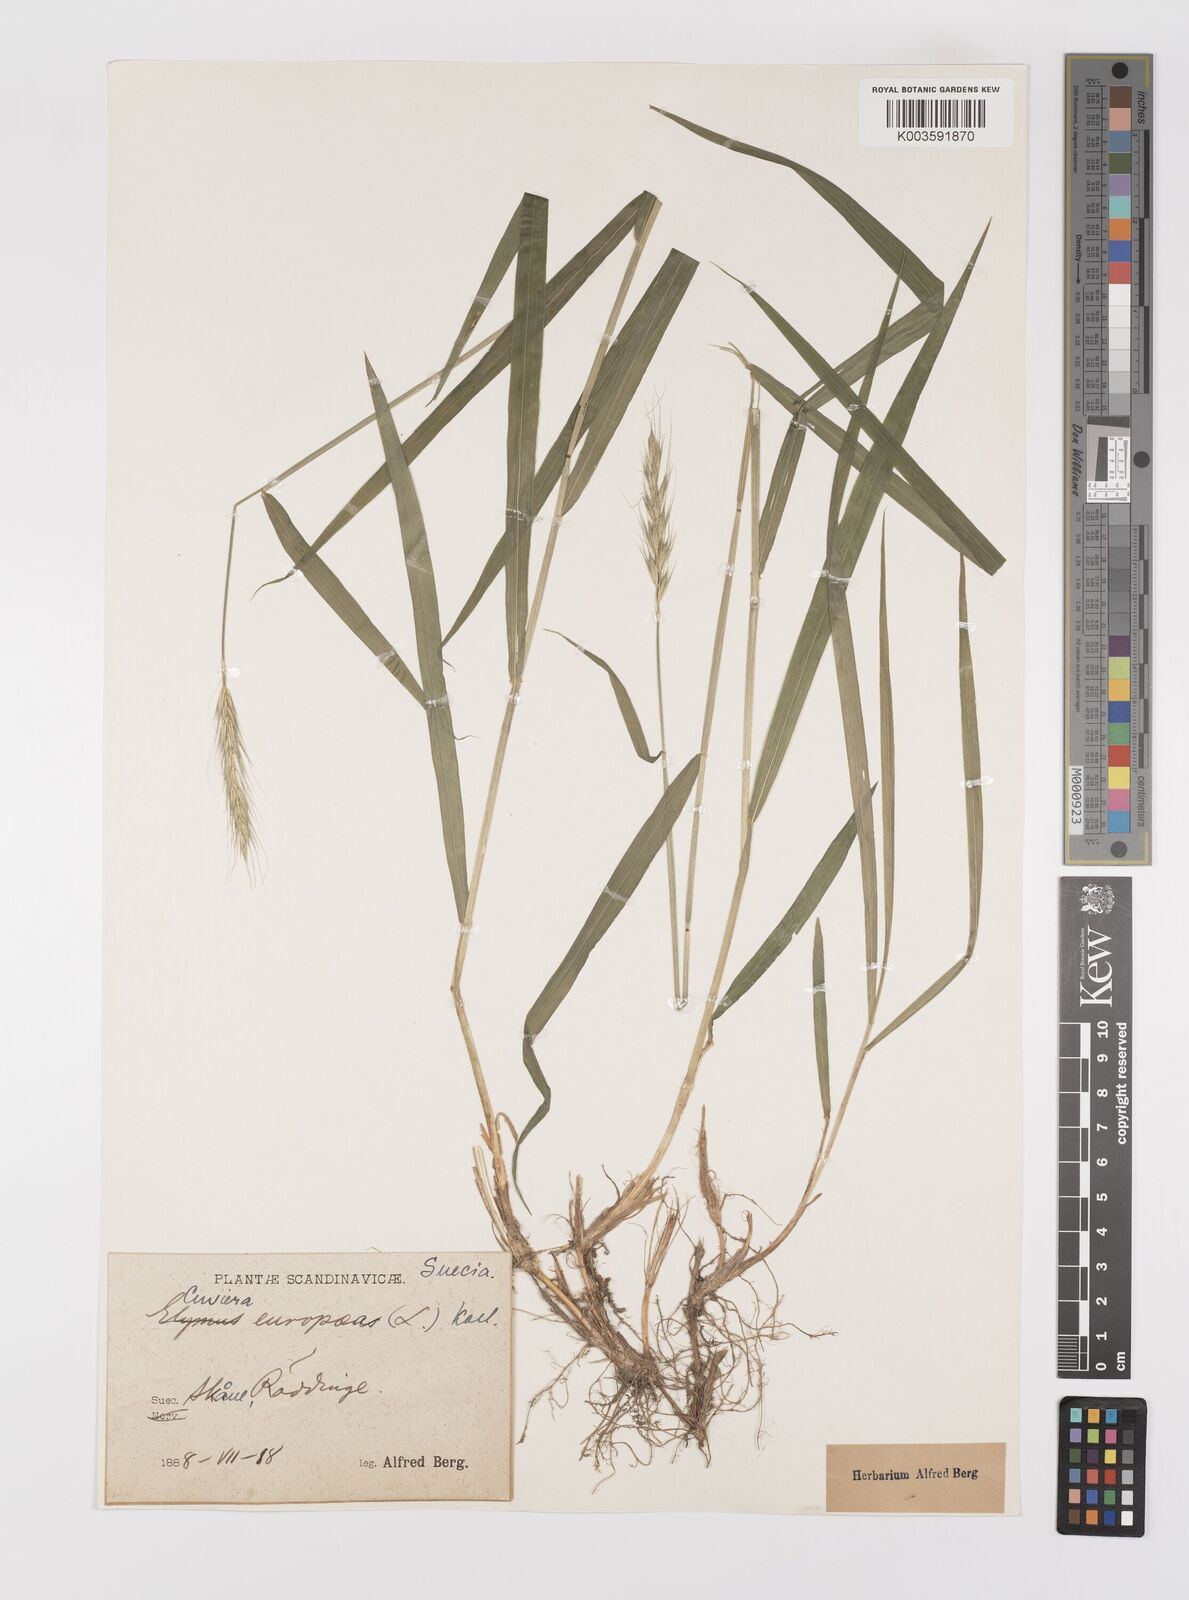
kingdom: Plantae
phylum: Tracheophyta
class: Liliopsida
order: Poales
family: Poaceae
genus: Hordelymus
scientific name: Hordelymus europaeus
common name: Wood-barley
